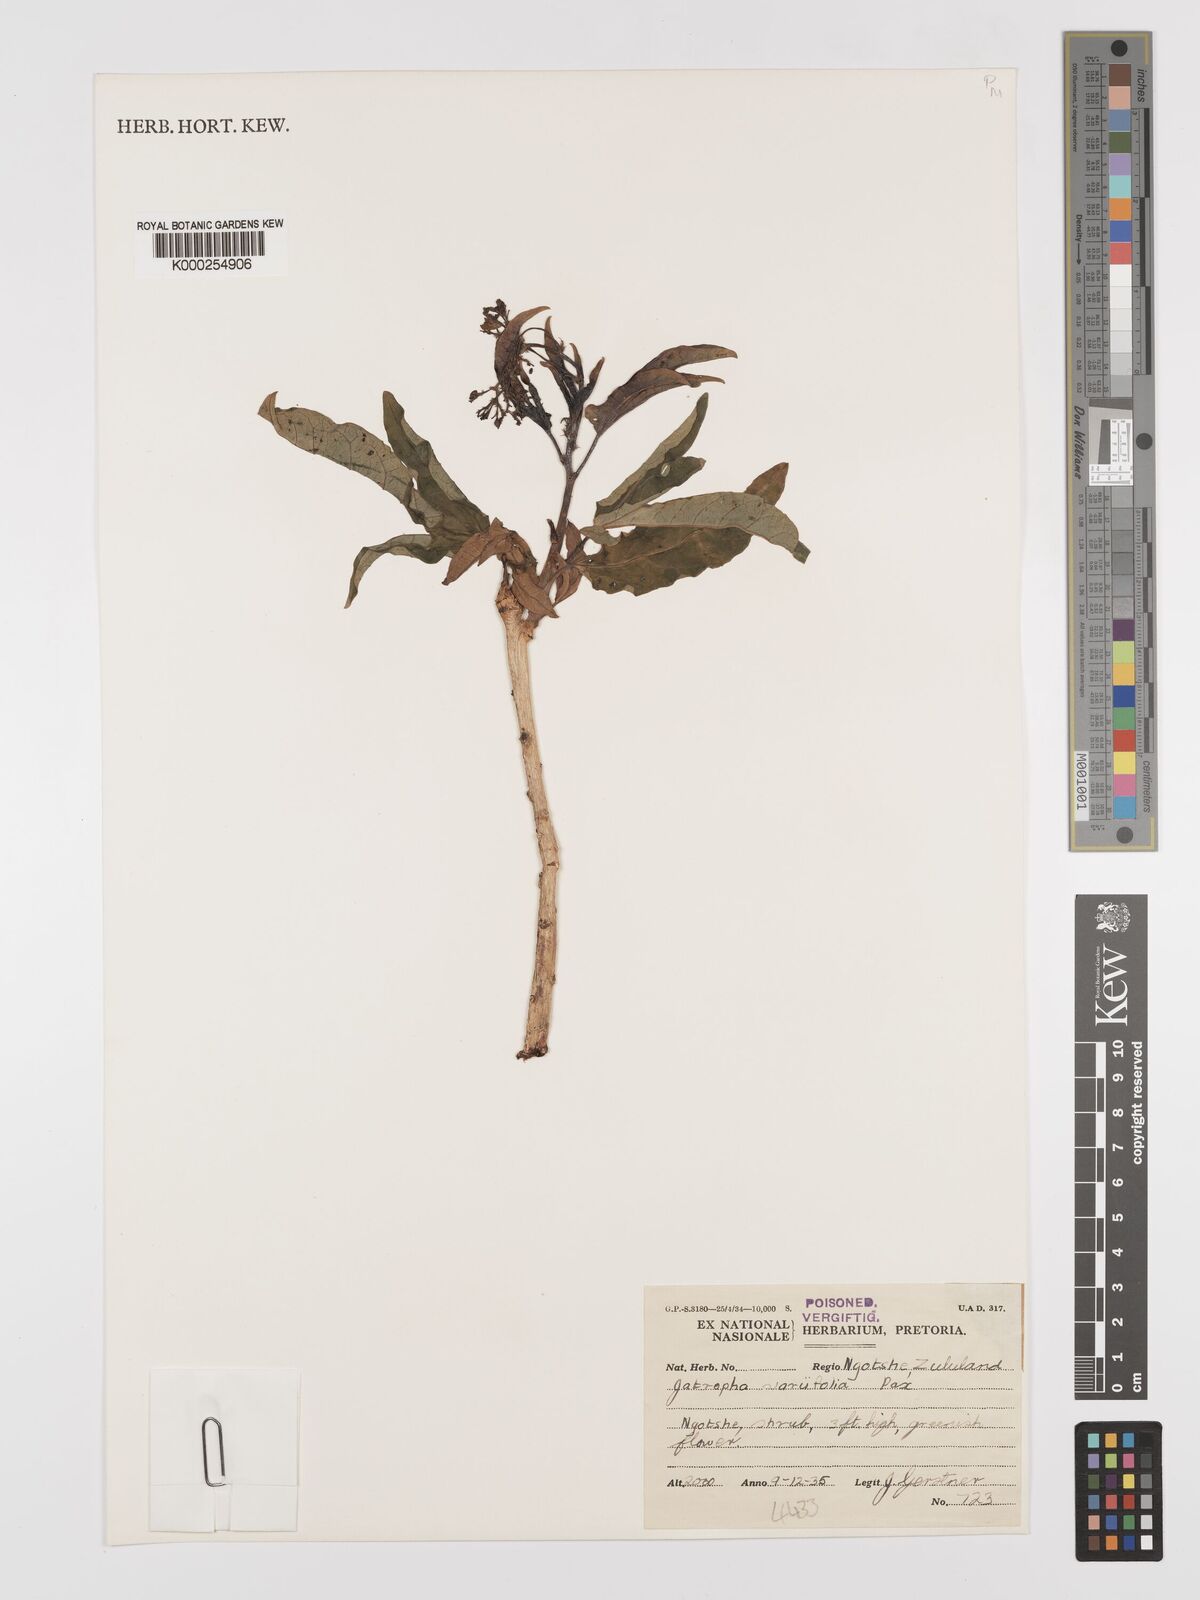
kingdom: Plantae
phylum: Tracheophyta
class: Magnoliopsida
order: Malpighiales
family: Euphorbiaceae
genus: Jatropha
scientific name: Jatropha variifolia
